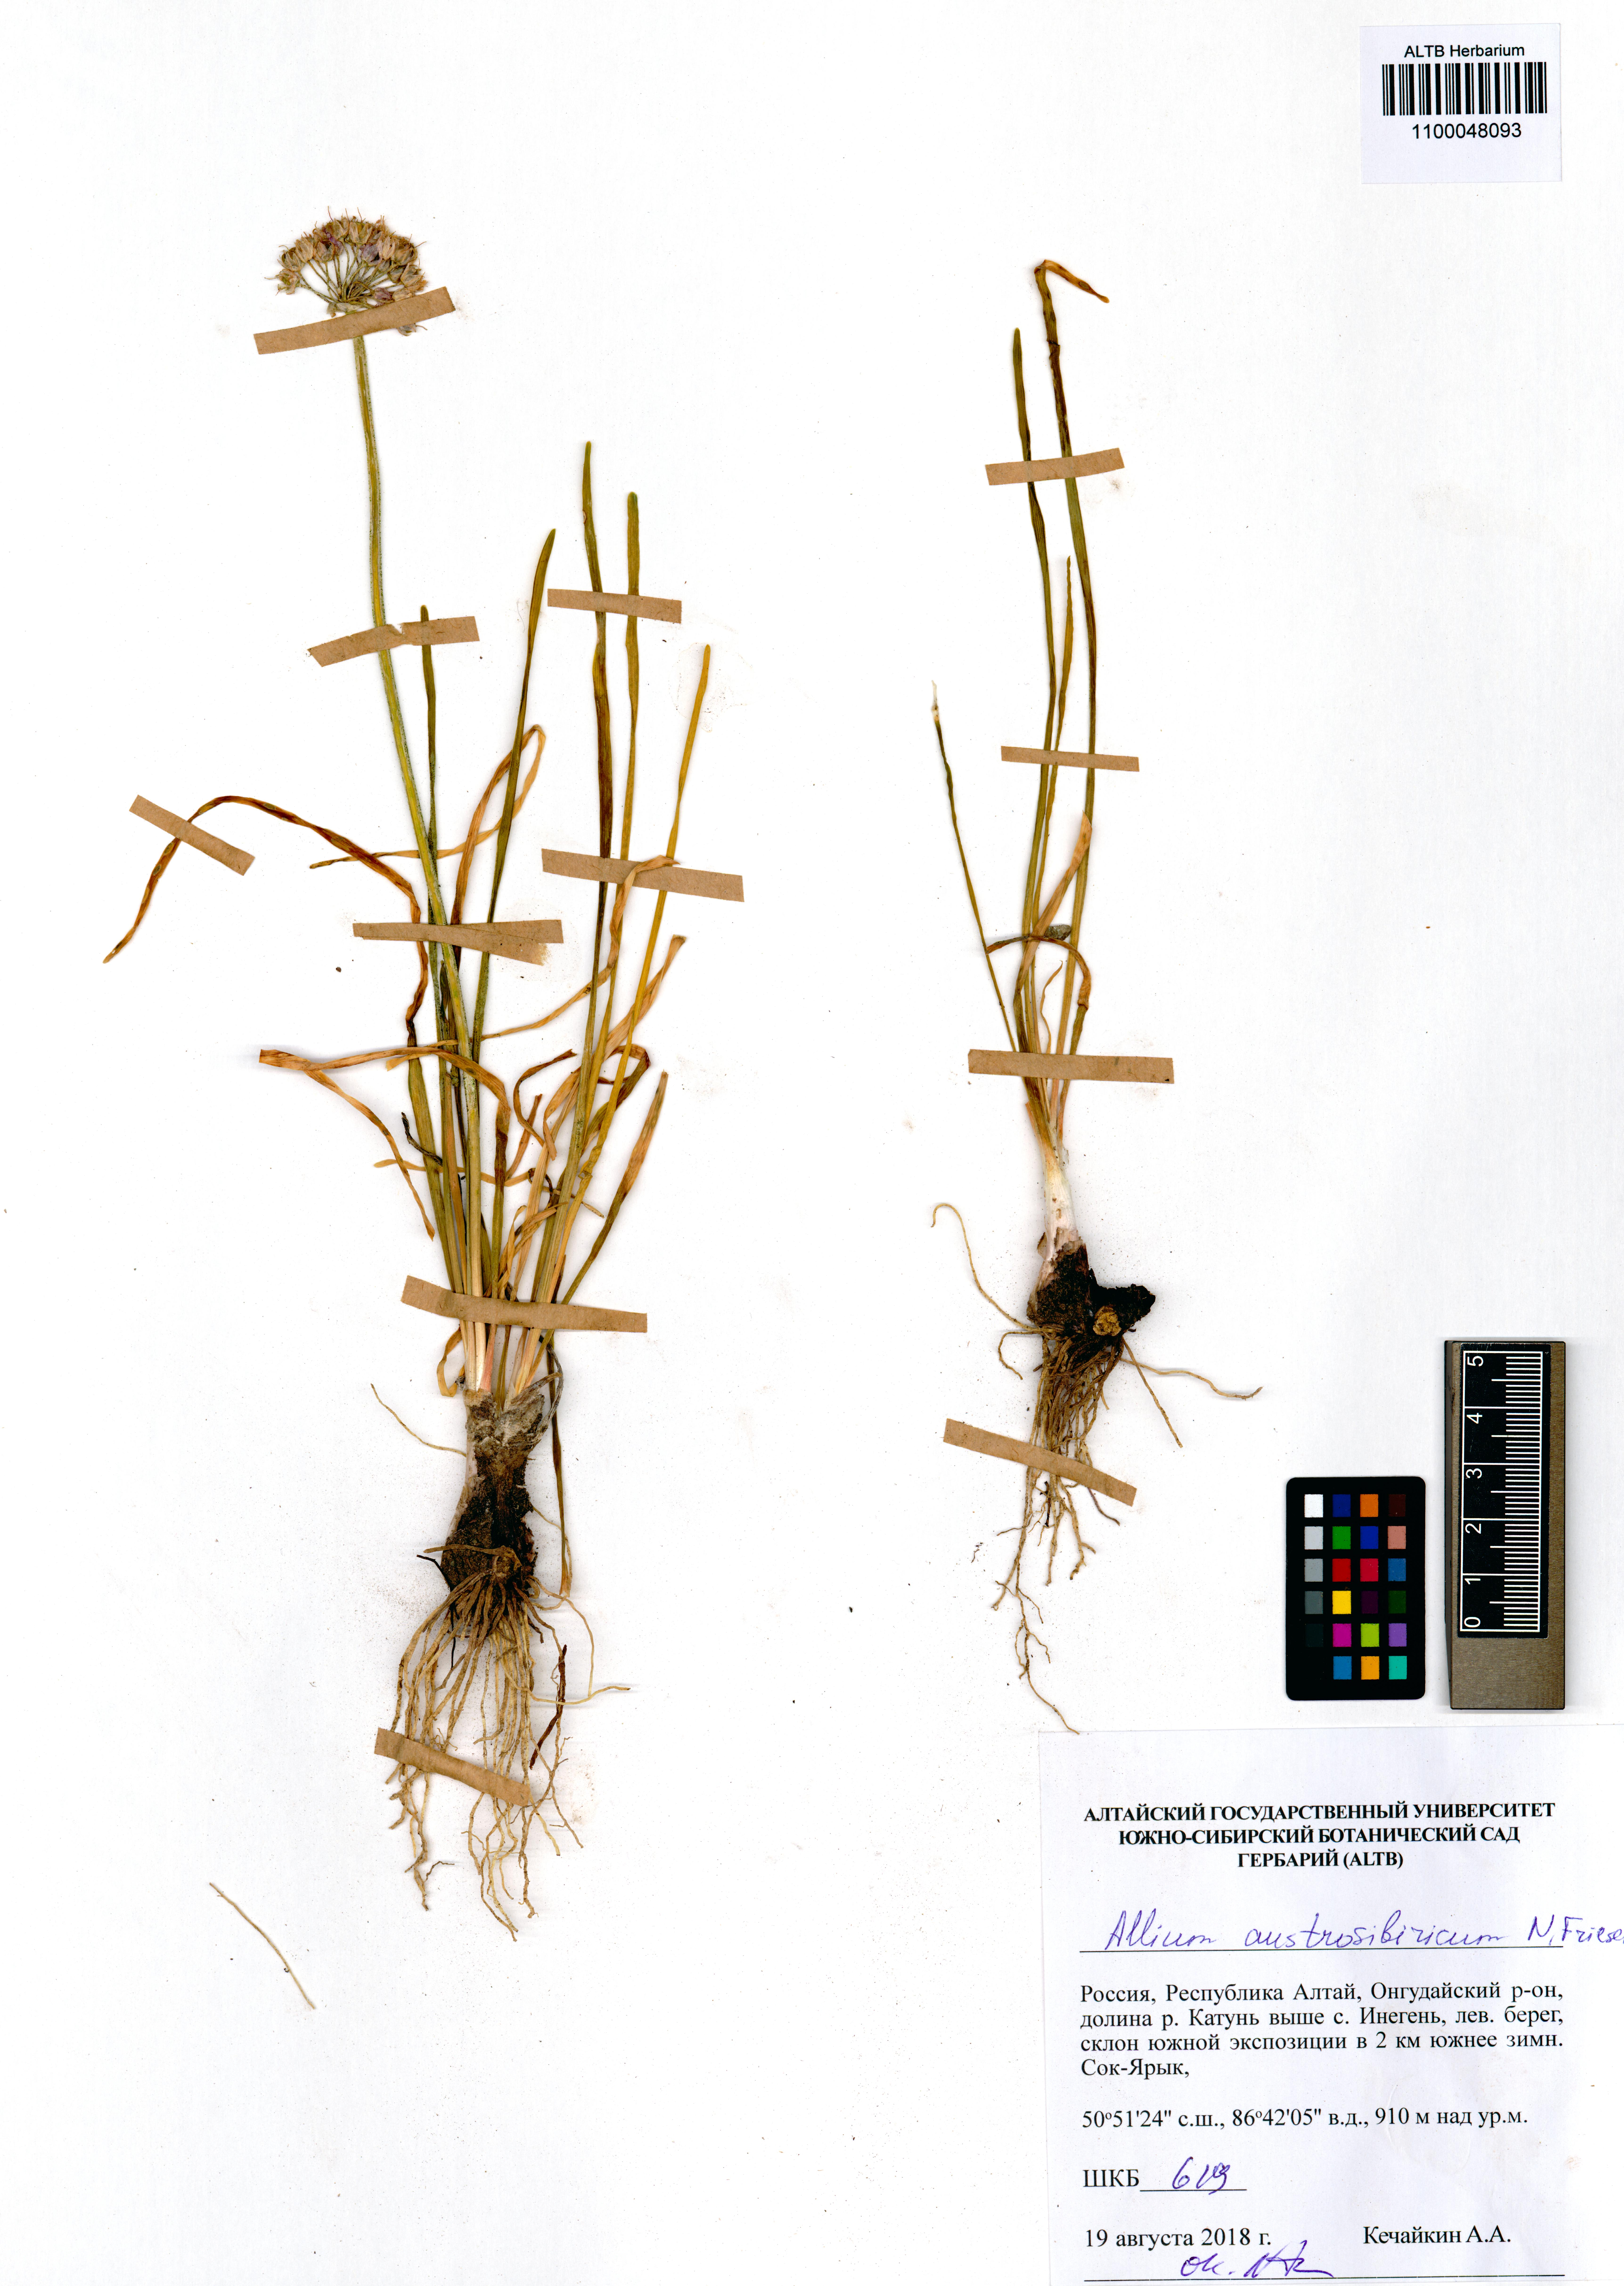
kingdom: Plantae
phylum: Tracheophyta
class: Liliopsida
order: Asparagales
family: Amaryllidaceae
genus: Allium
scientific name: Allium austrosibiricum
